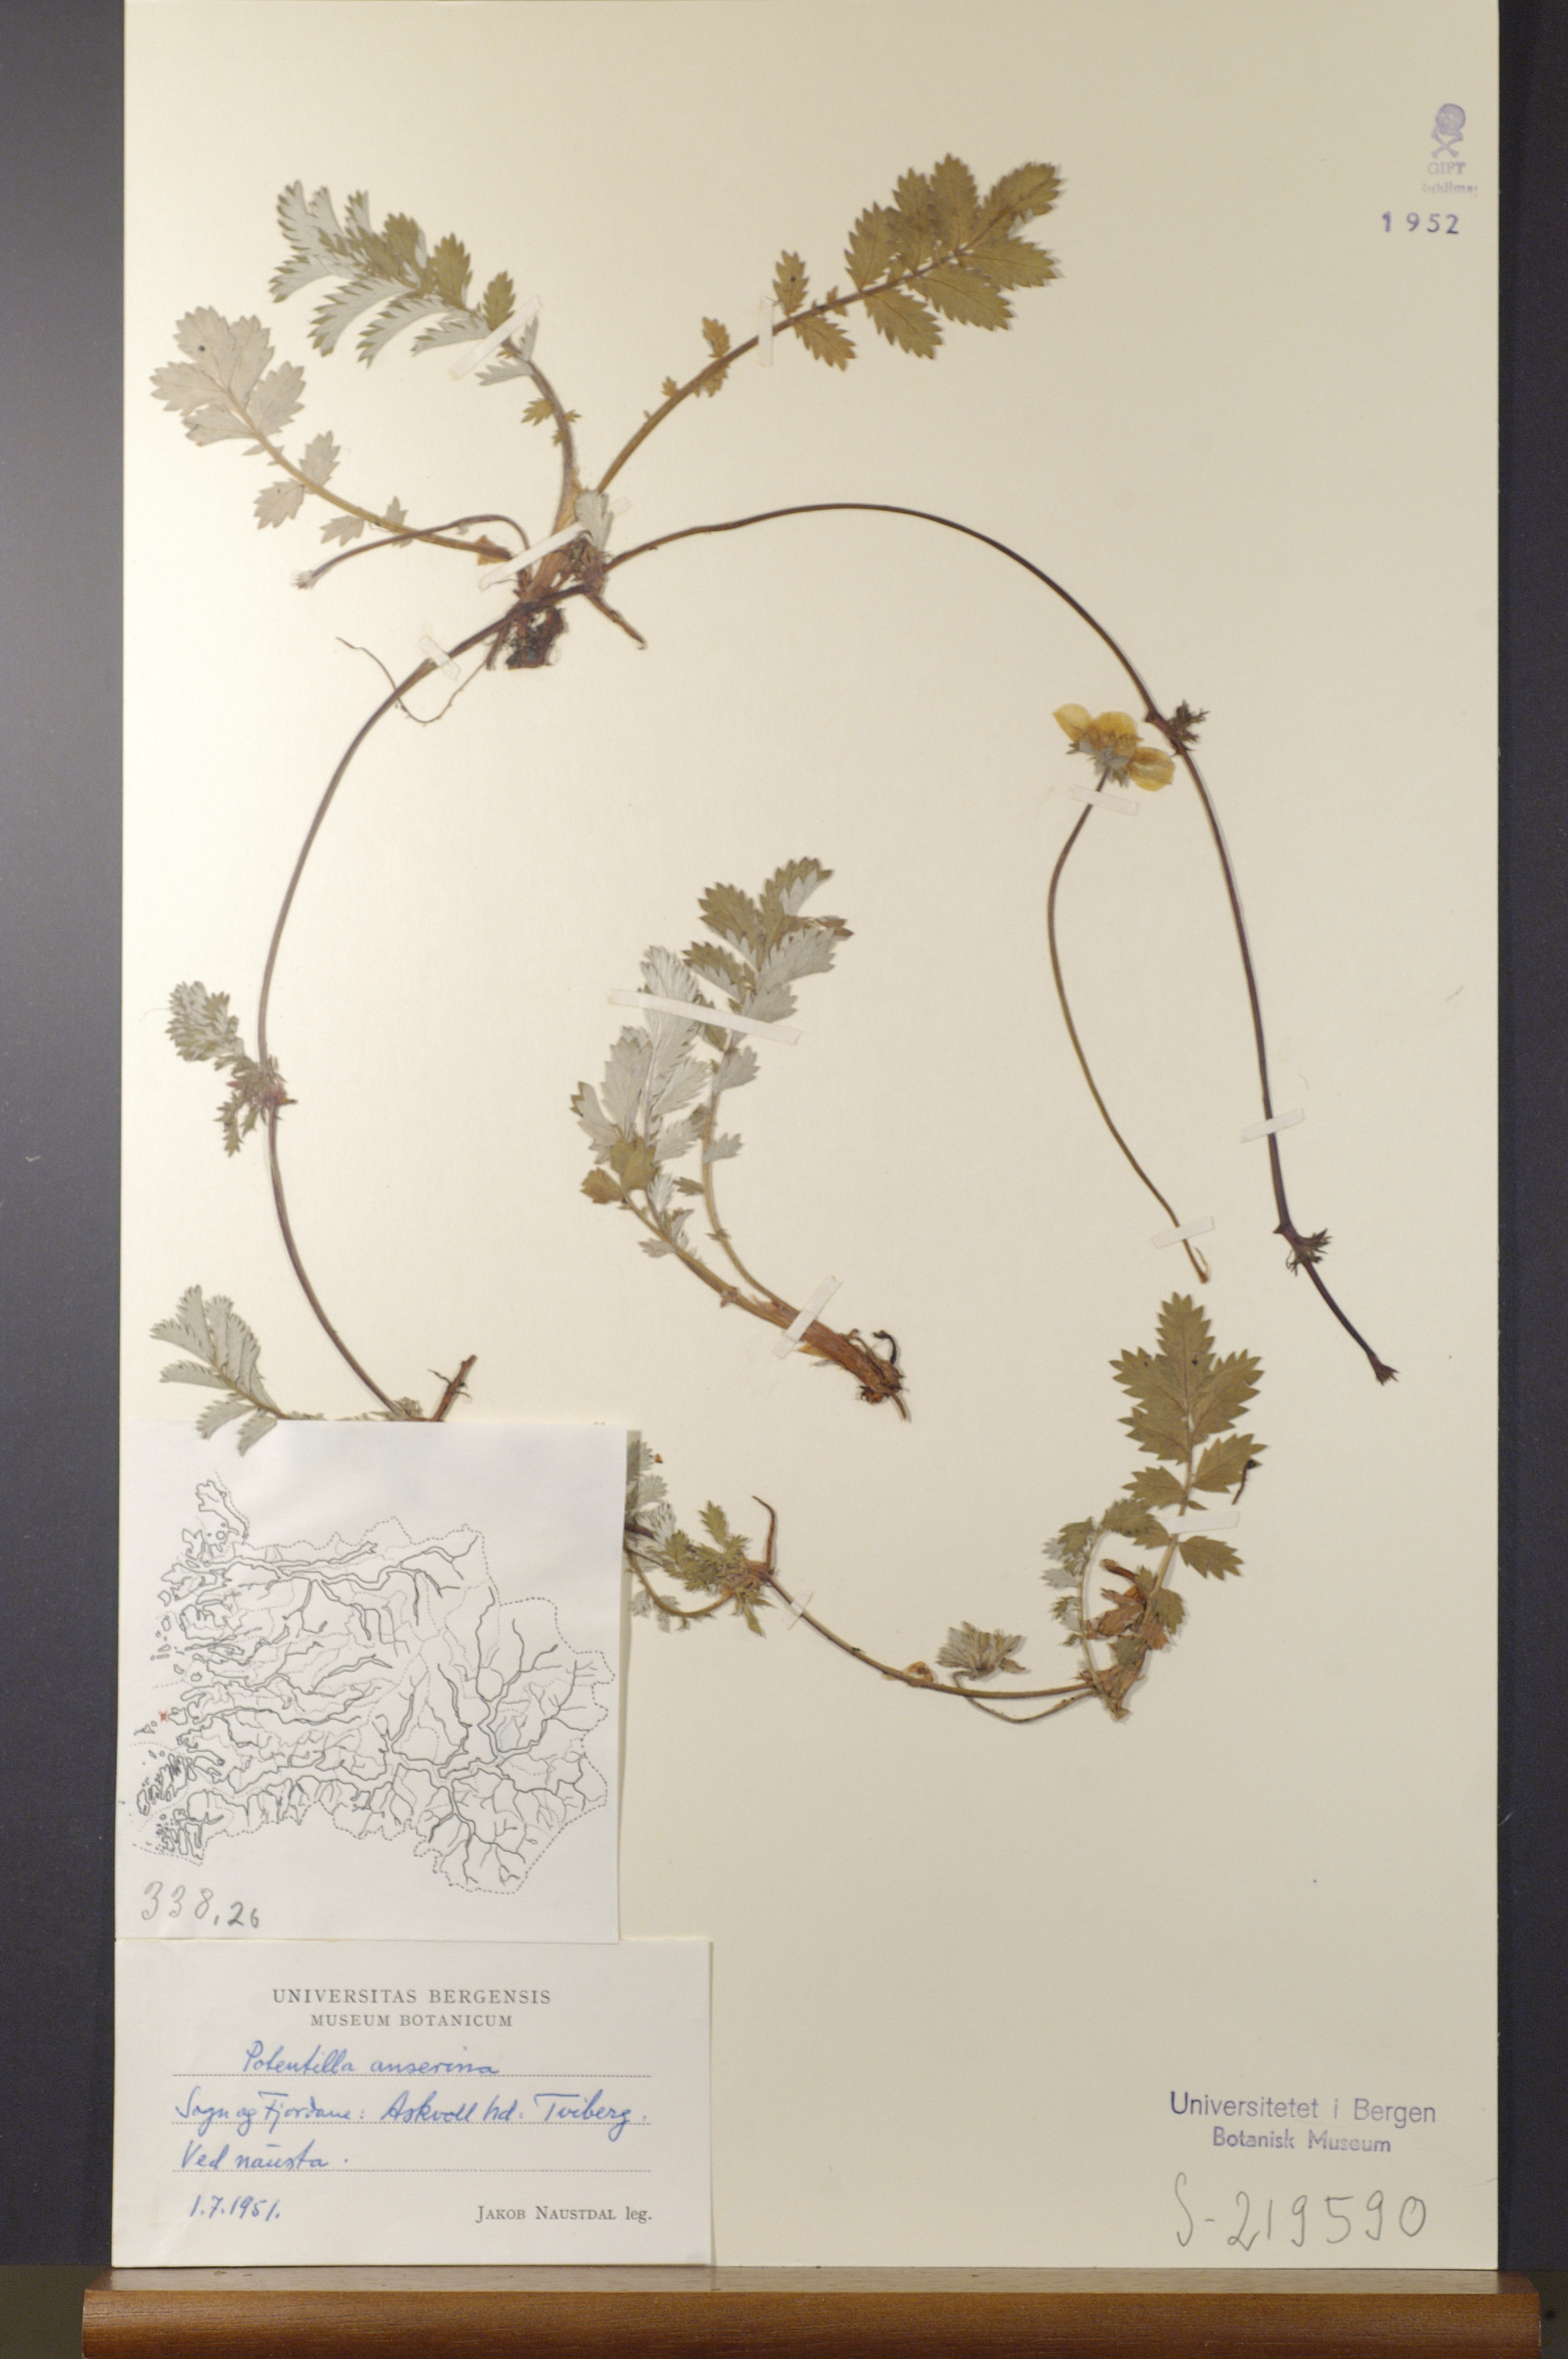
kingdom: Plantae
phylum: Tracheophyta
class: Magnoliopsida
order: Rosales
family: Rosaceae
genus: Argentina
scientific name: Argentina anserina
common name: Common silverweed
